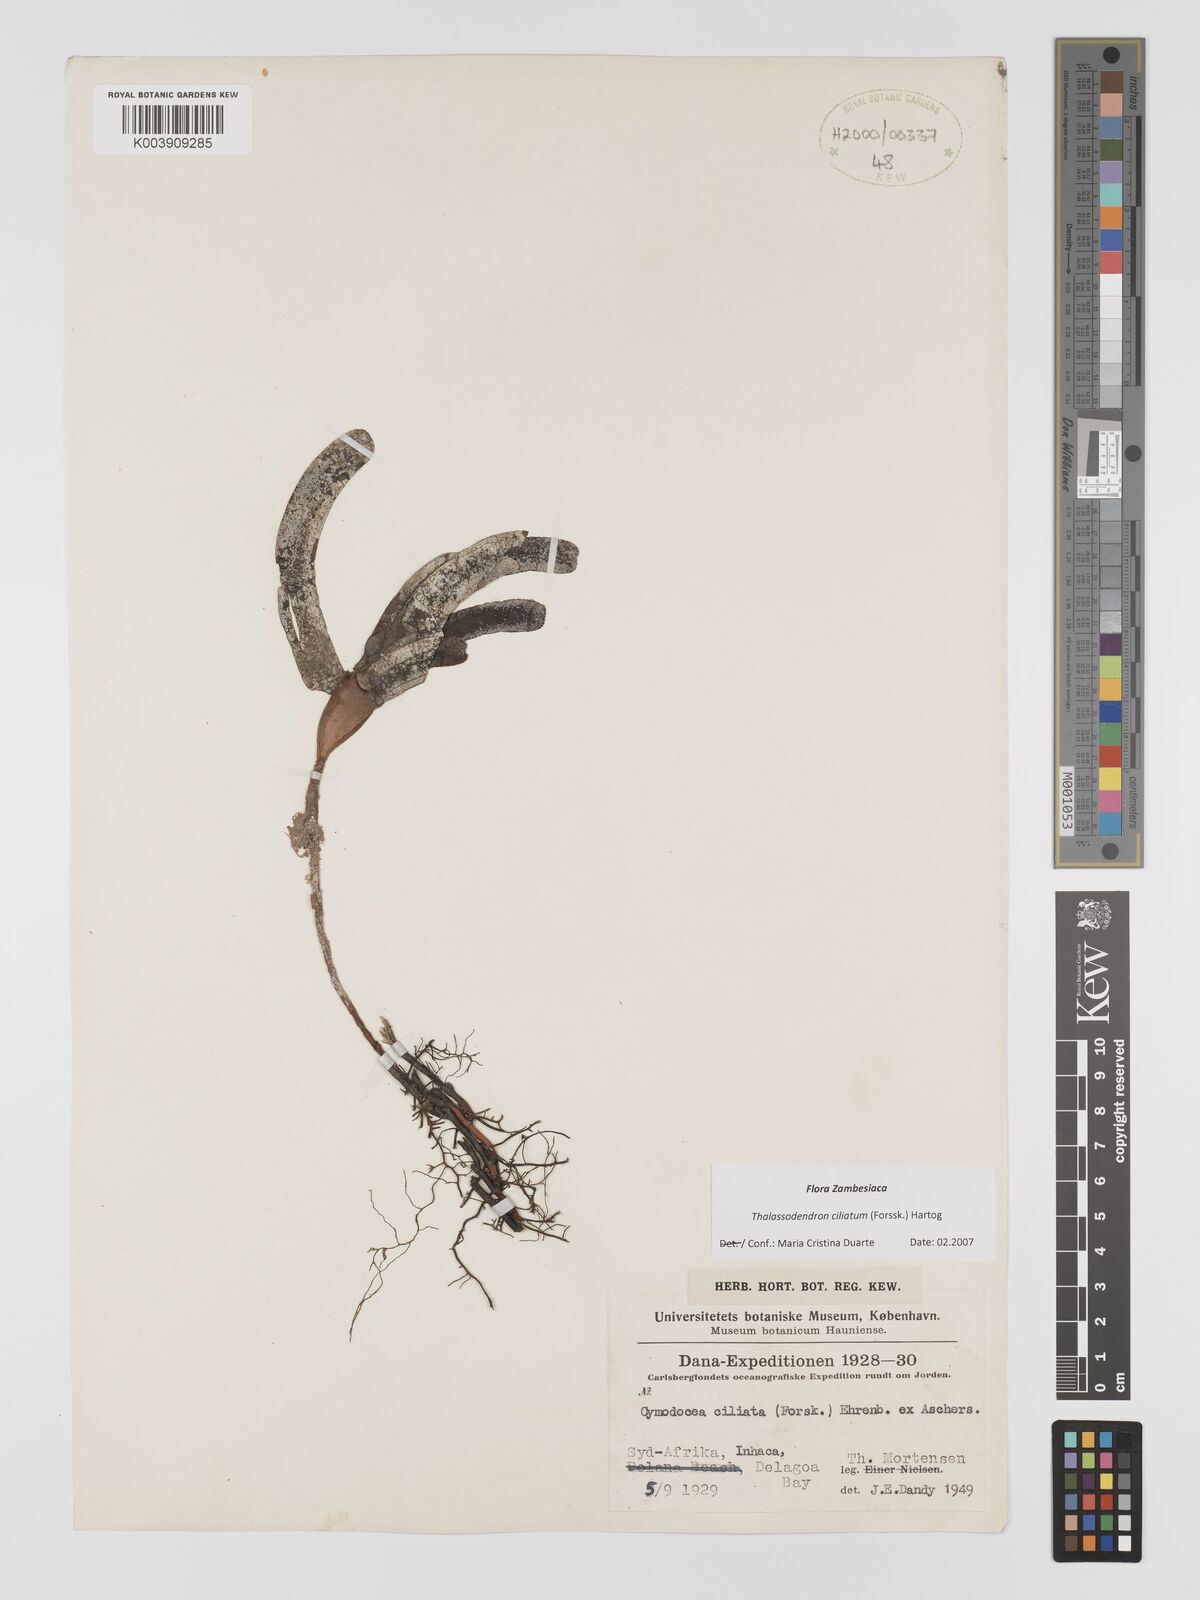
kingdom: Plantae
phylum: Tracheophyta
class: Liliopsida
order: Alismatales
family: Cymodoceaceae
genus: Thalassodendron
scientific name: Thalassodendron ciliatum
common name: Species code: tc
